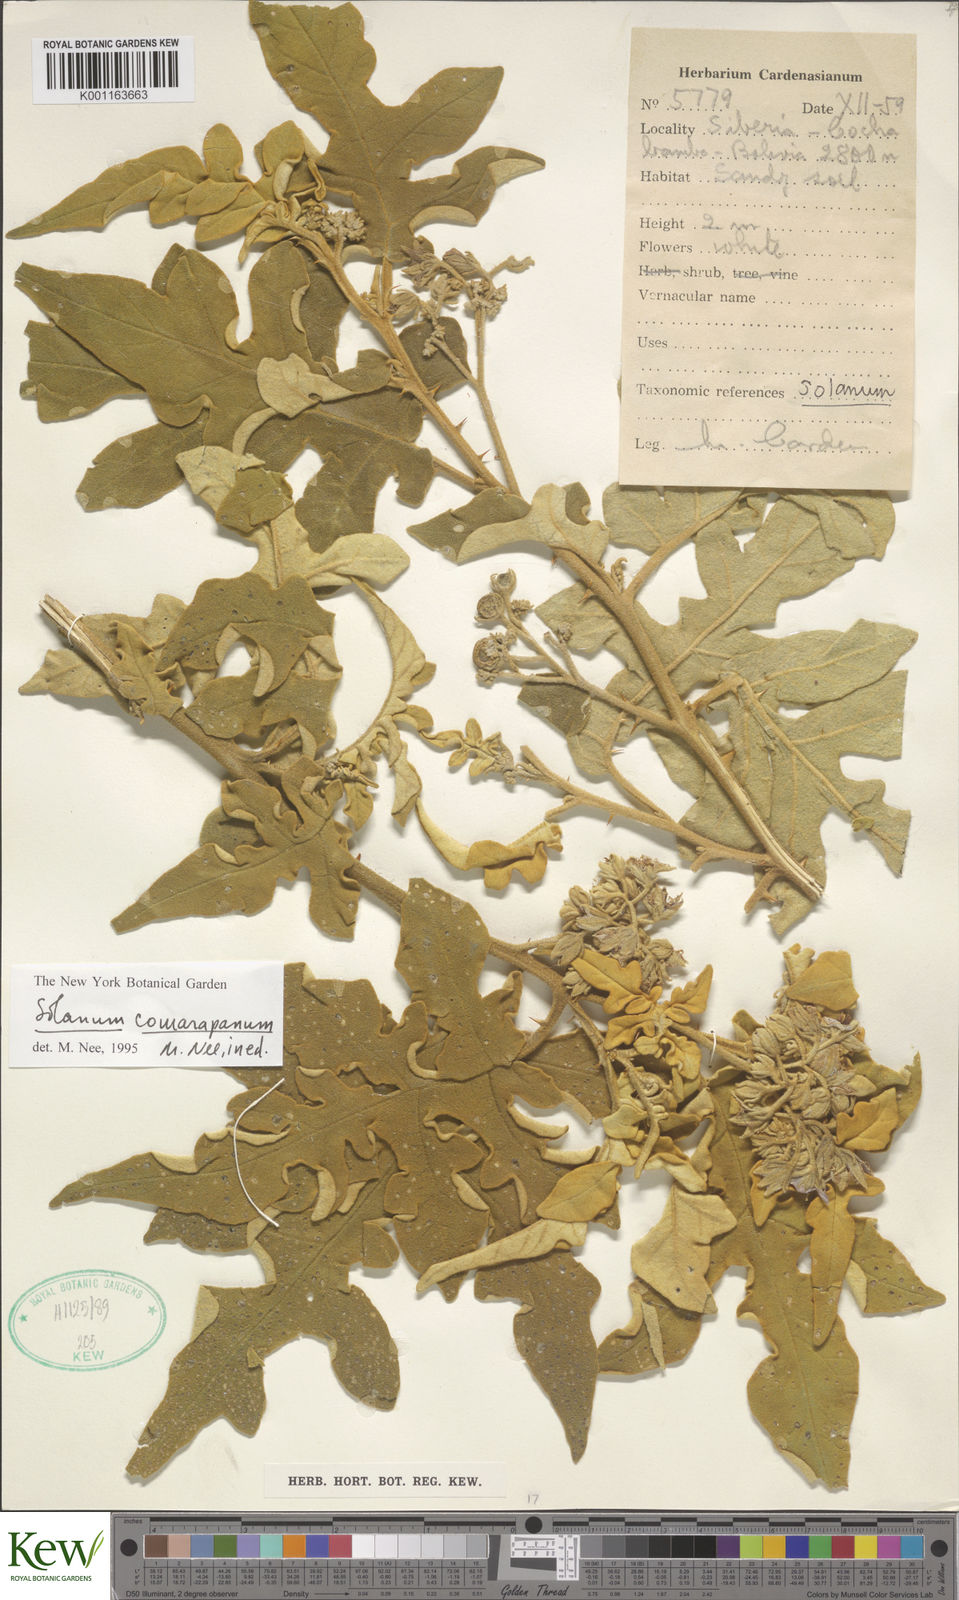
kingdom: Plantae
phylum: Tracheophyta
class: Magnoliopsida
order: Solanales
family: Solanaceae
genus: Solanum
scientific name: Solanum comarapanum
